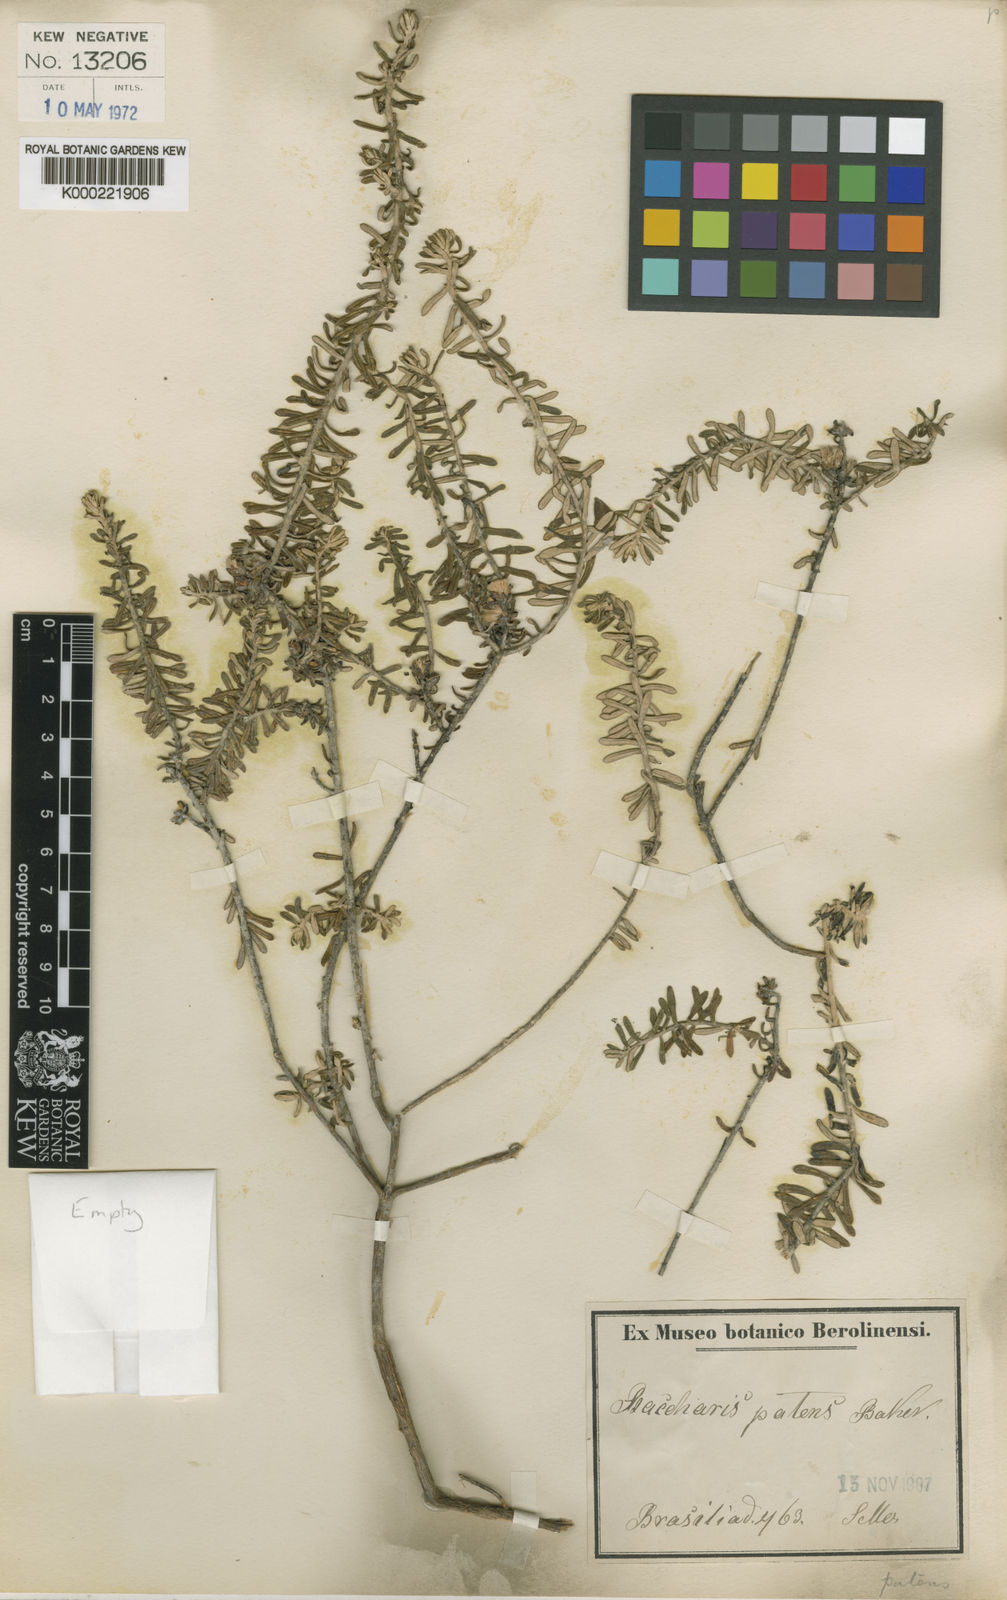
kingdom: Plantae
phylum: Tracheophyta
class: Magnoliopsida
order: Asterales
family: Asteraceae
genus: Baccharis
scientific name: Baccharis patens
